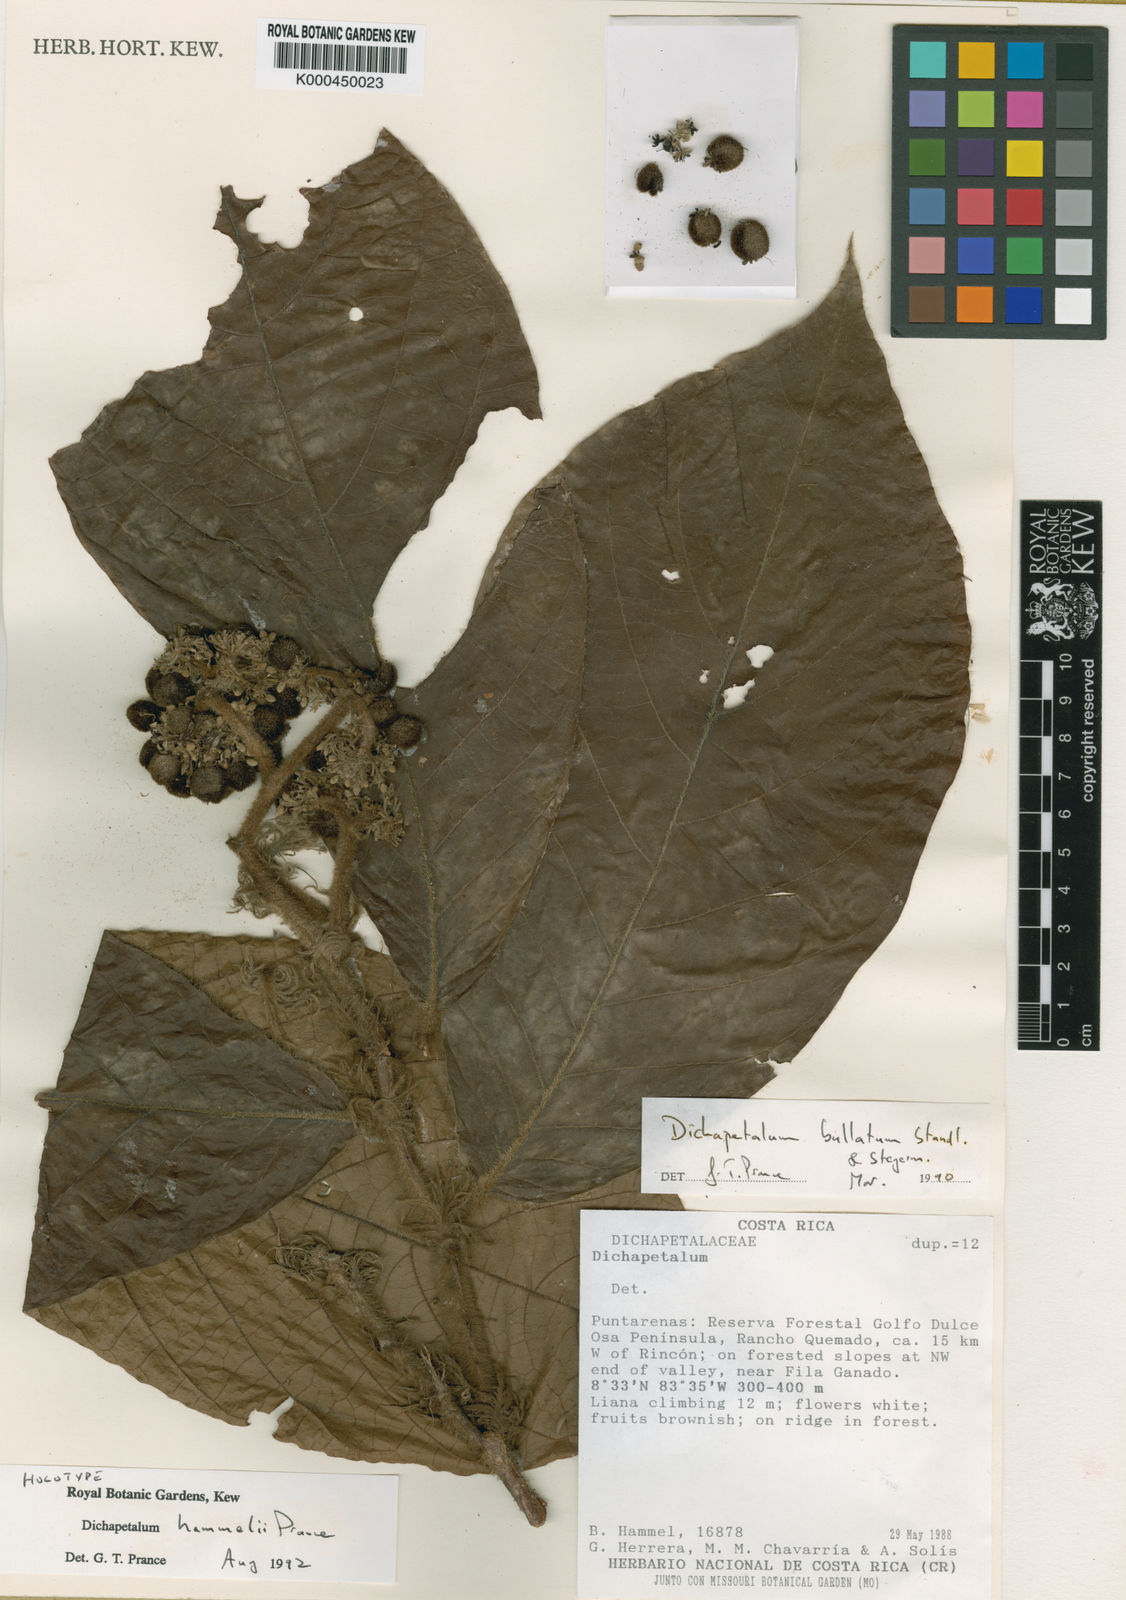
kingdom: Plantae
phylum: Tracheophyta
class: Magnoliopsida
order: Malpighiales
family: Dichapetalaceae
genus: Dichapetalum
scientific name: Dichapetalum hammelii
